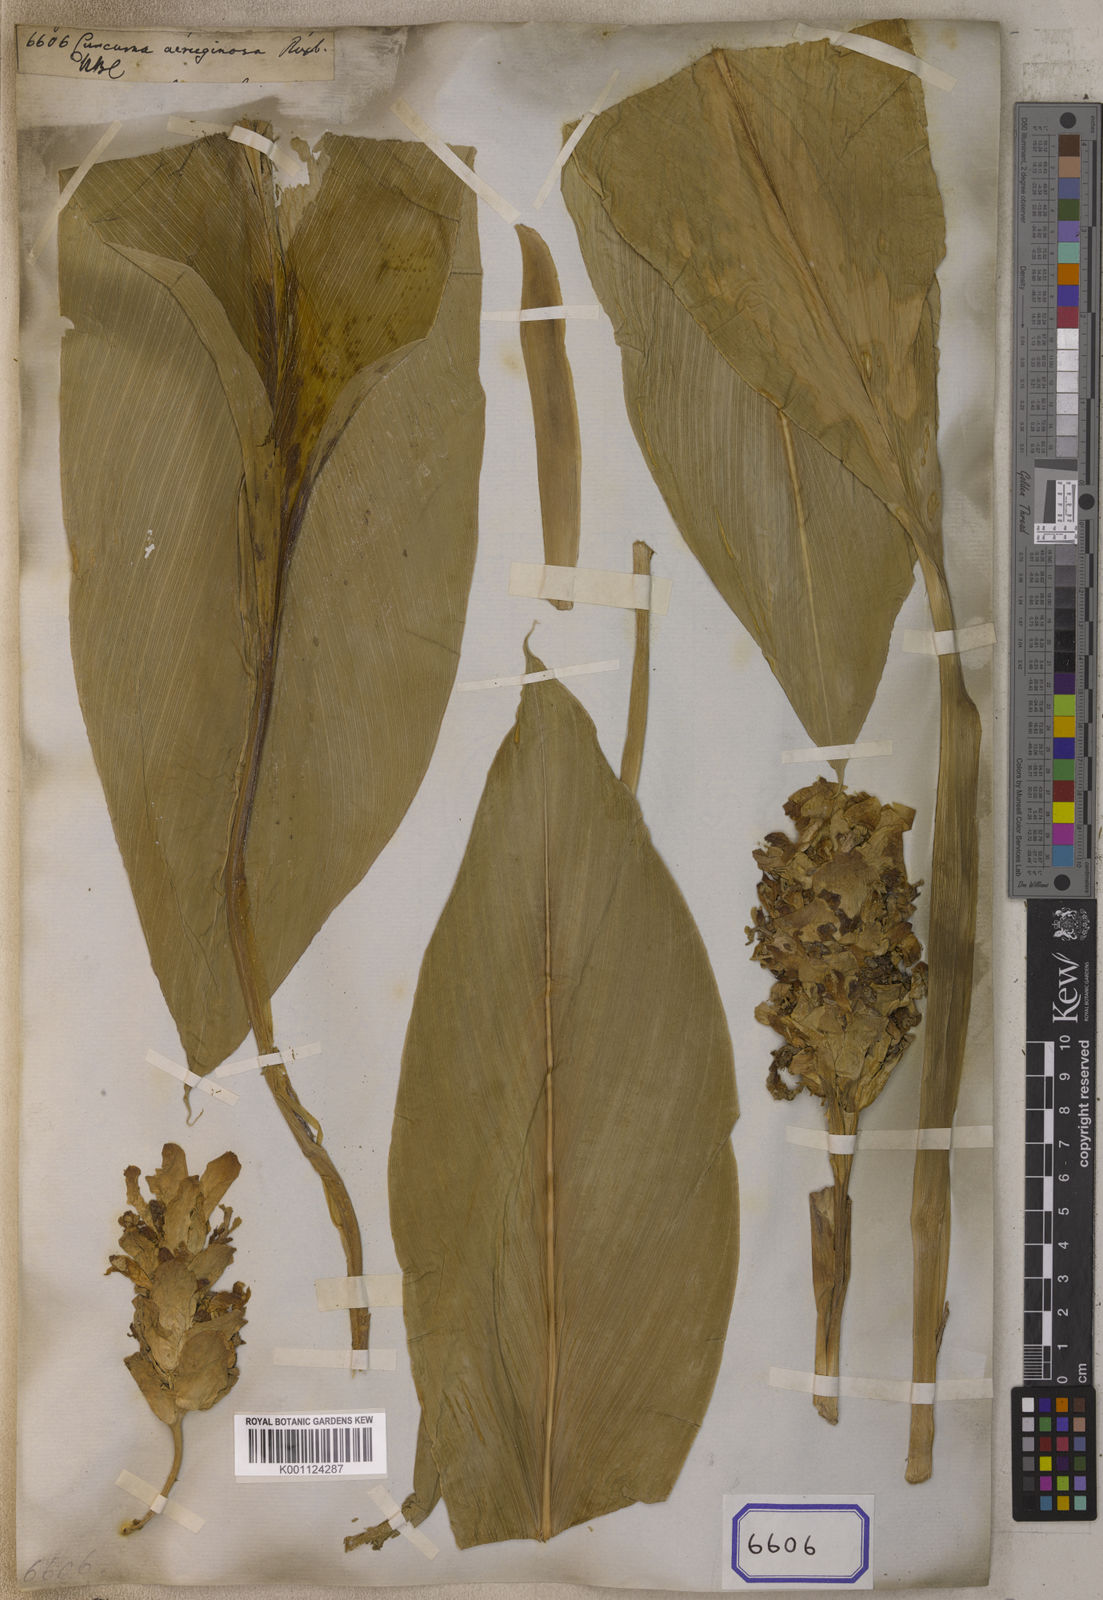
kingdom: Plantae
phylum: Tracheophyta
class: Liliopsida
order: Zingiberales
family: Zingiberaceae
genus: Curcuma
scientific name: Curcuma aeruginosa
